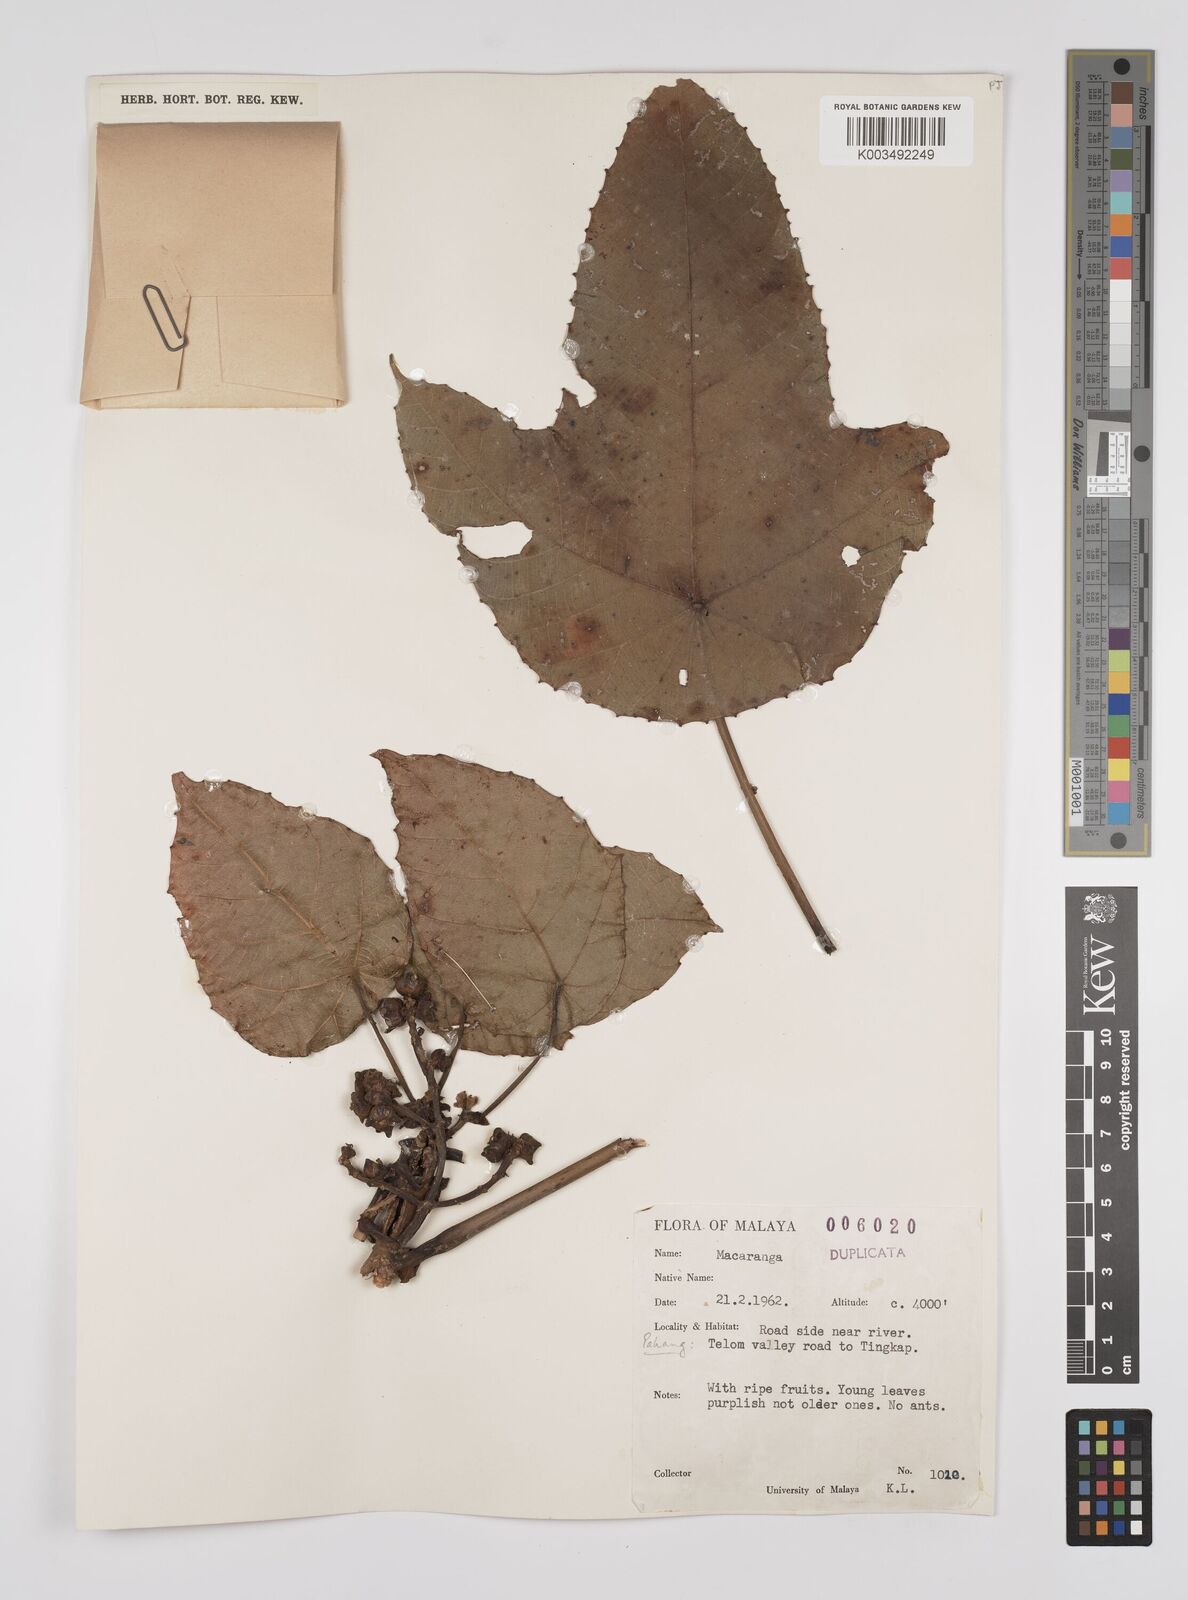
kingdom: Plantae
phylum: Tracheophyta
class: Magnoliopsida
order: Malpighiales
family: Euphorbiaceae
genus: Macaranga
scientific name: Macaranga triloba
